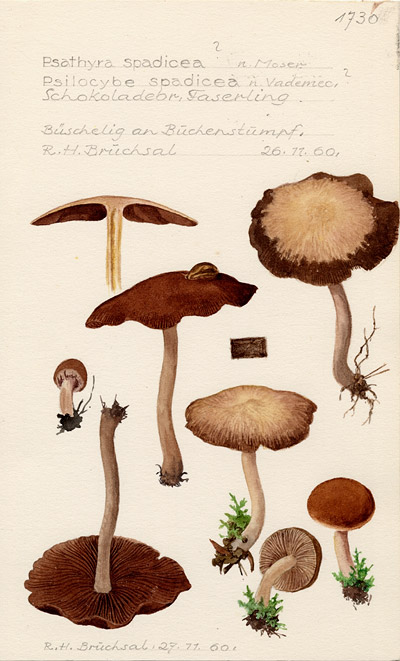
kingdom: Fungi
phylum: Basidiomycota
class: Agaricomycetes
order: Agaricales
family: Psathyrellaceae
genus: Homophron
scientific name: Homophron spadiceum
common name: Chestnut brittlestem
